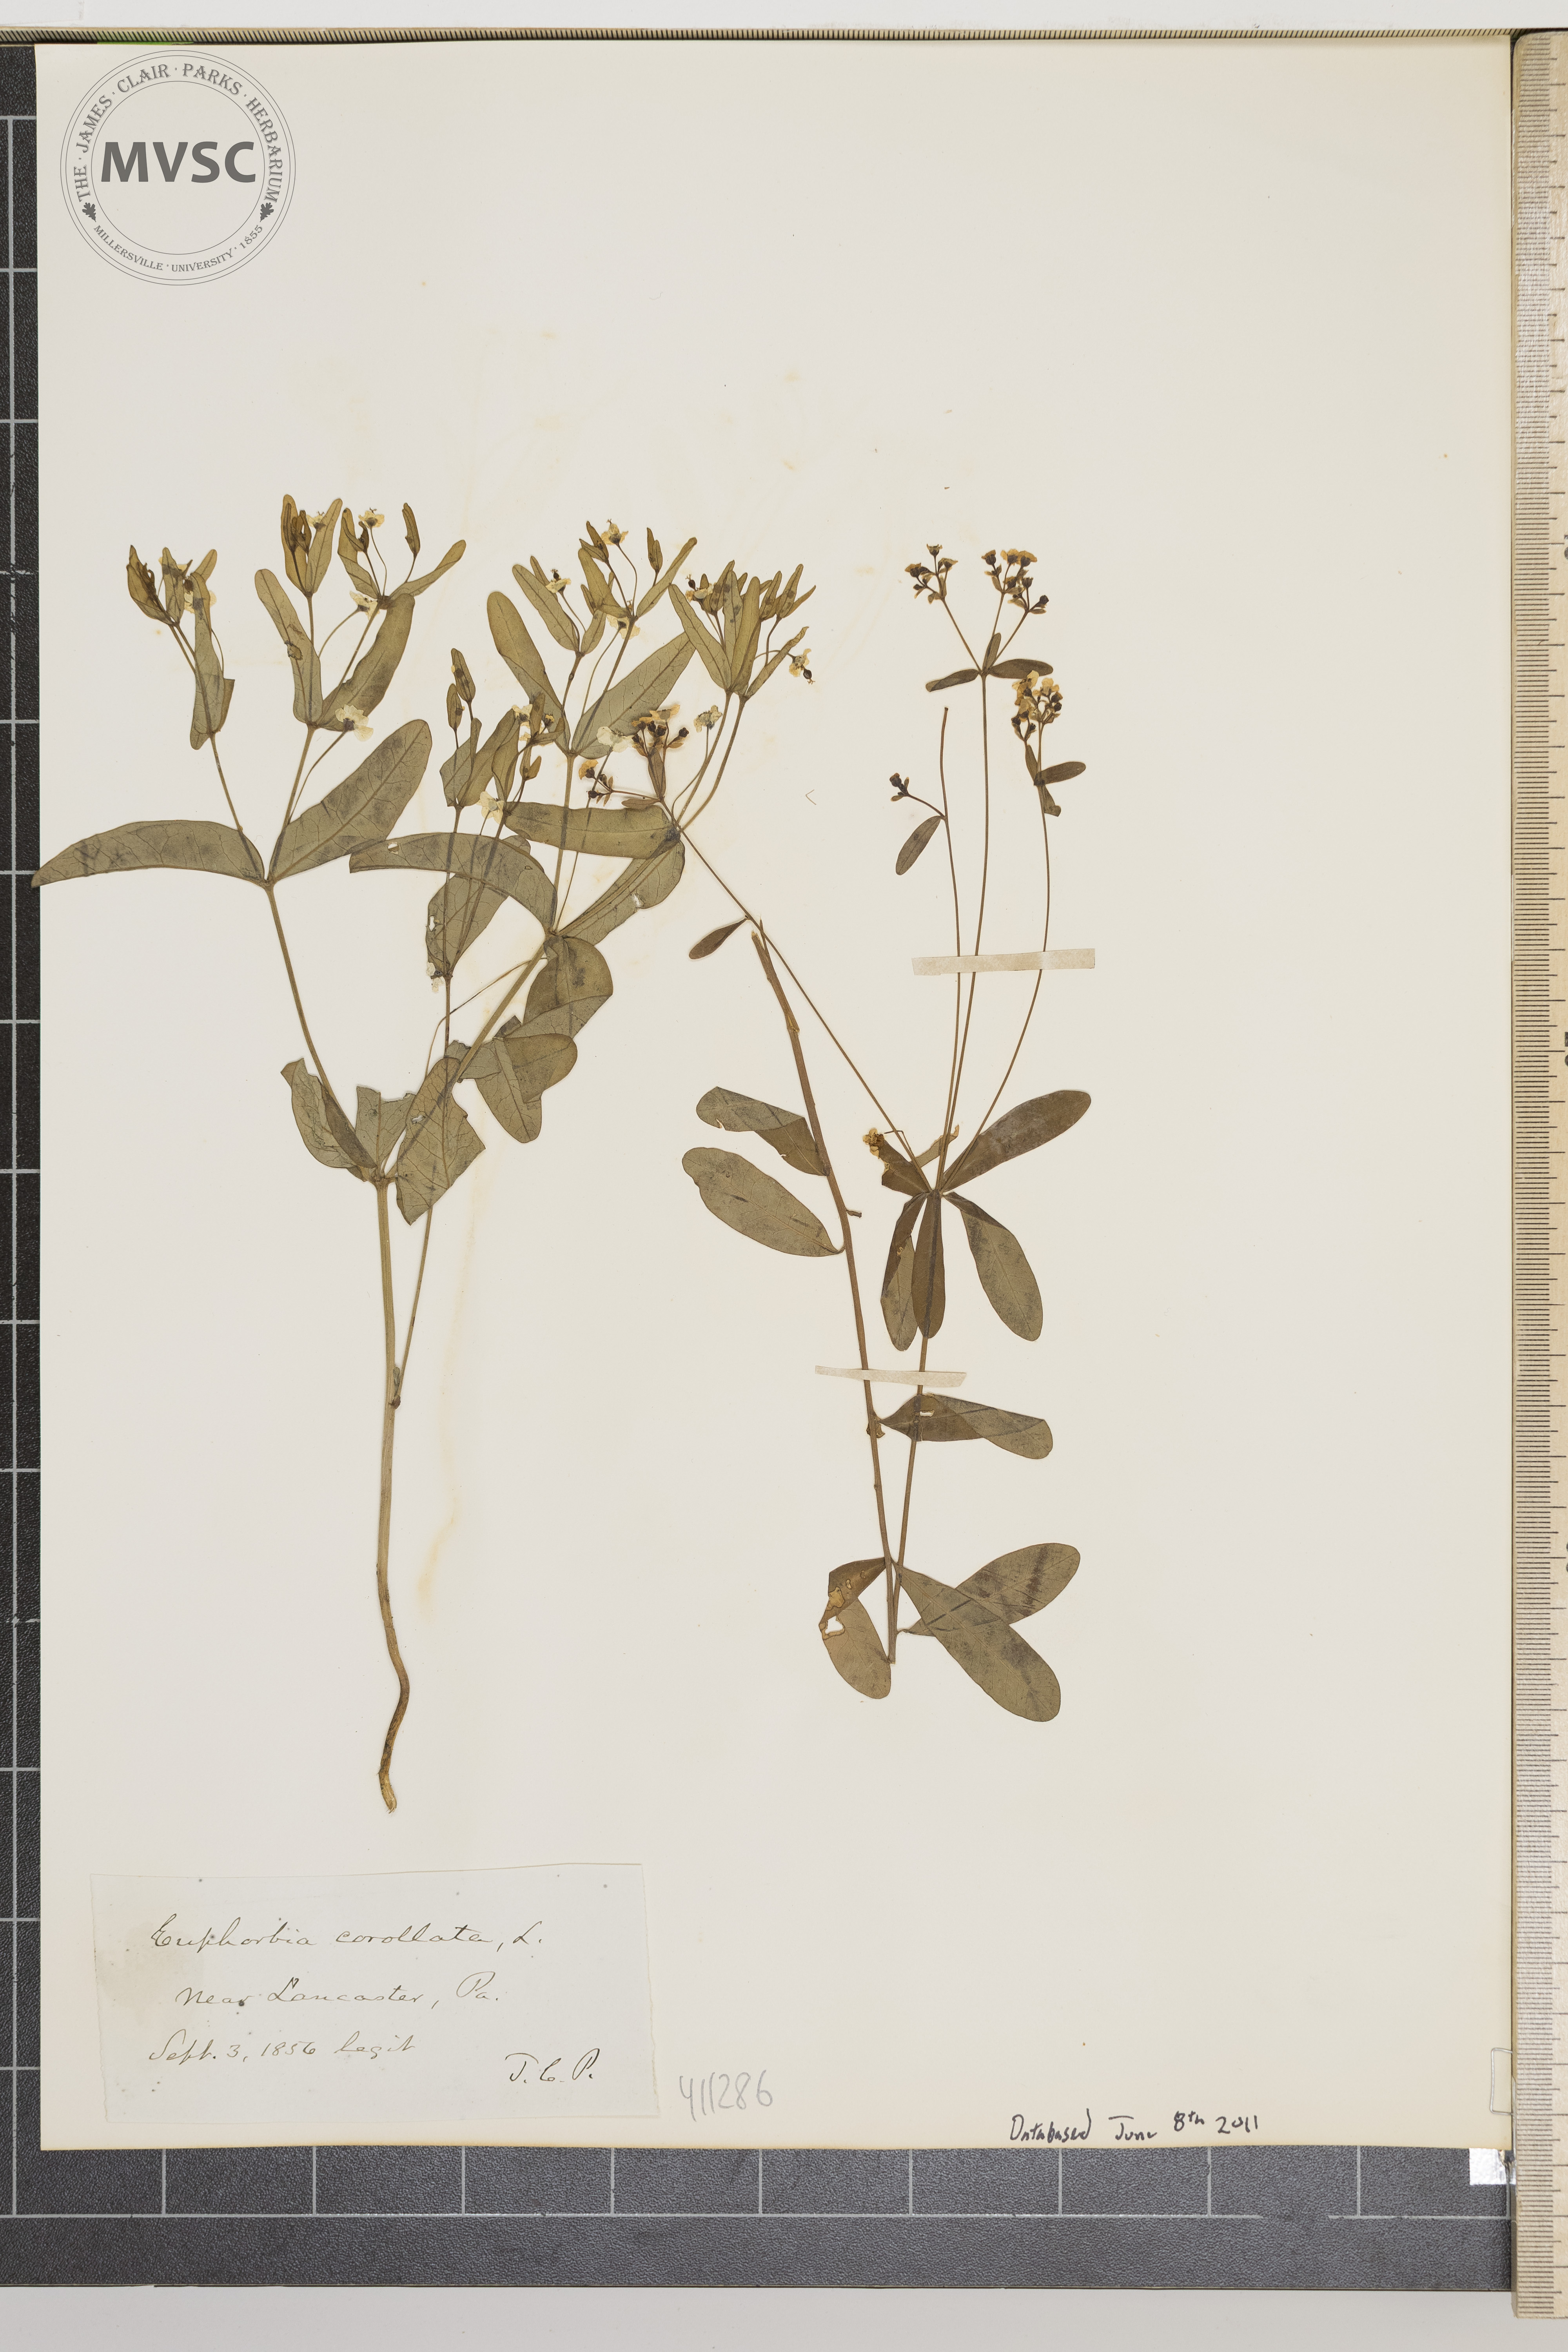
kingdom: Plantae
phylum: Tracheophyta
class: Magnoliopsida
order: Malpighiales
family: Euphorbiaceae
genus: Euphorbia
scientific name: Euphorbia corollata
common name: Flowering spurge
